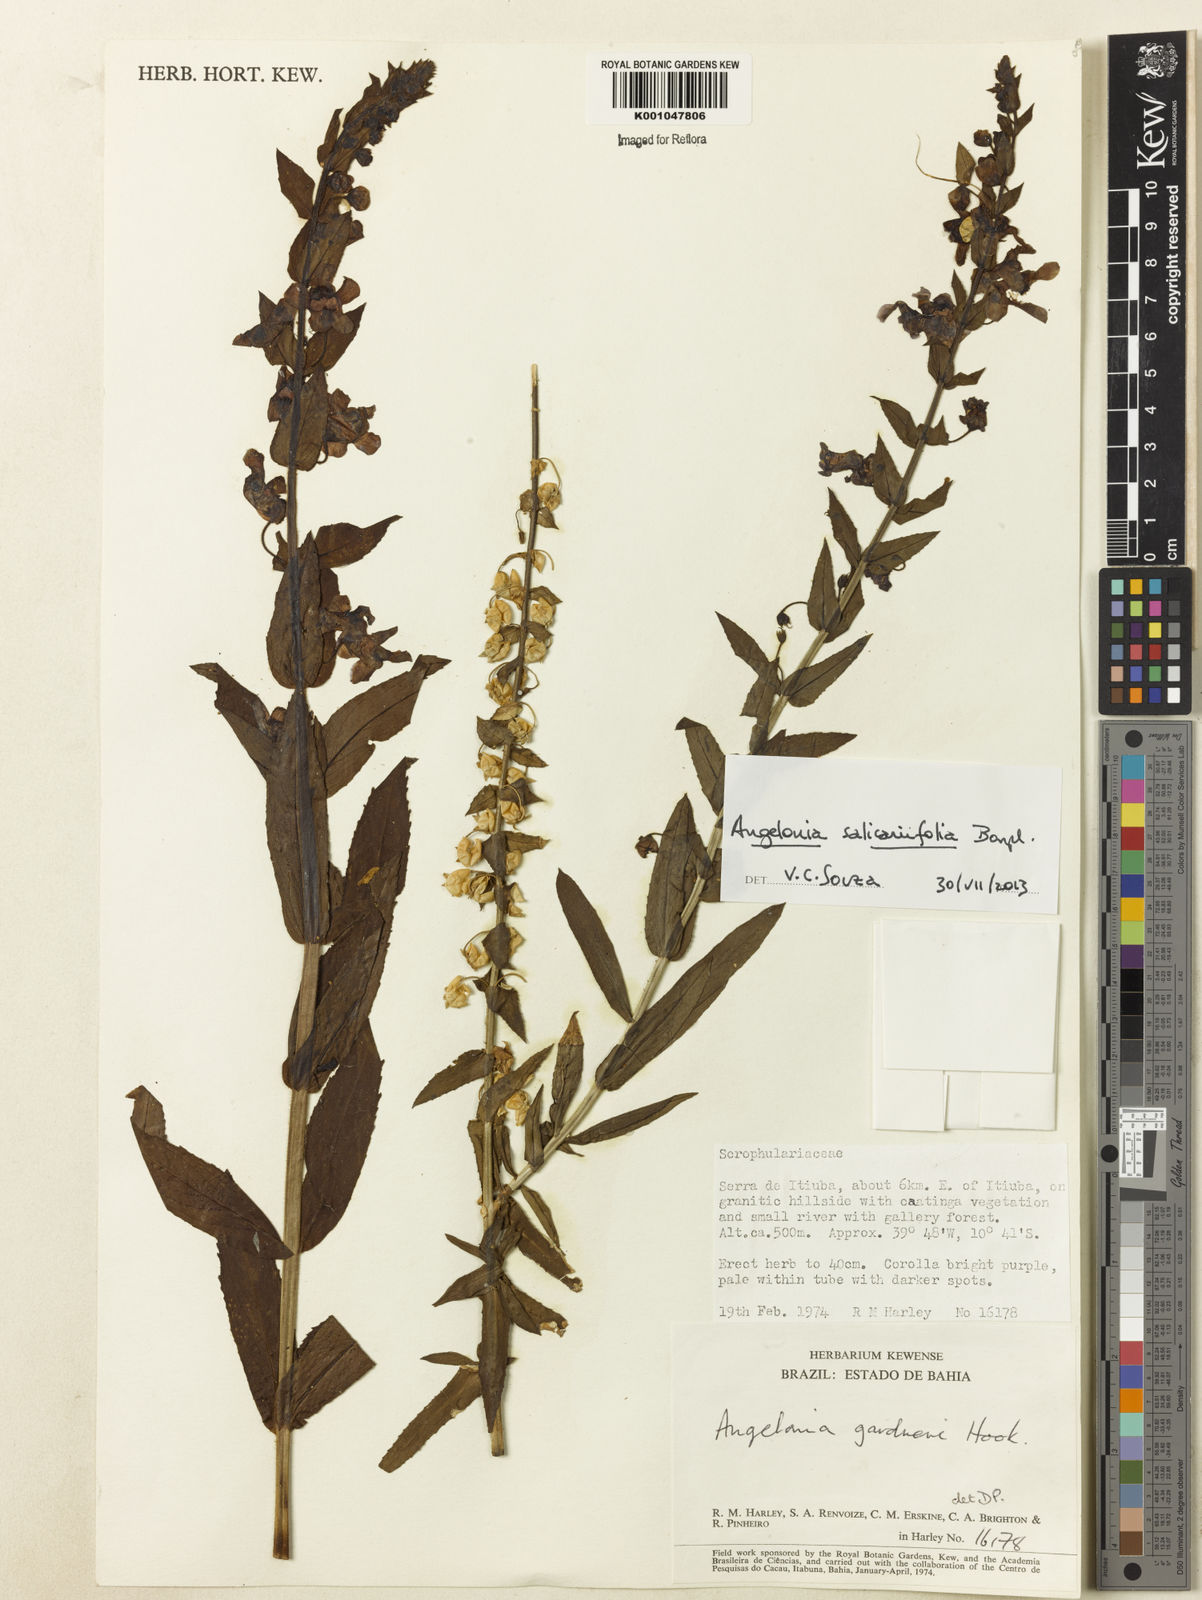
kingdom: Plantae
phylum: Tracheophyta
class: Magnoliopsida
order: Lamiales
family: Plantaginaceae
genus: Angelonia
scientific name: Angelonia salicariifolia
